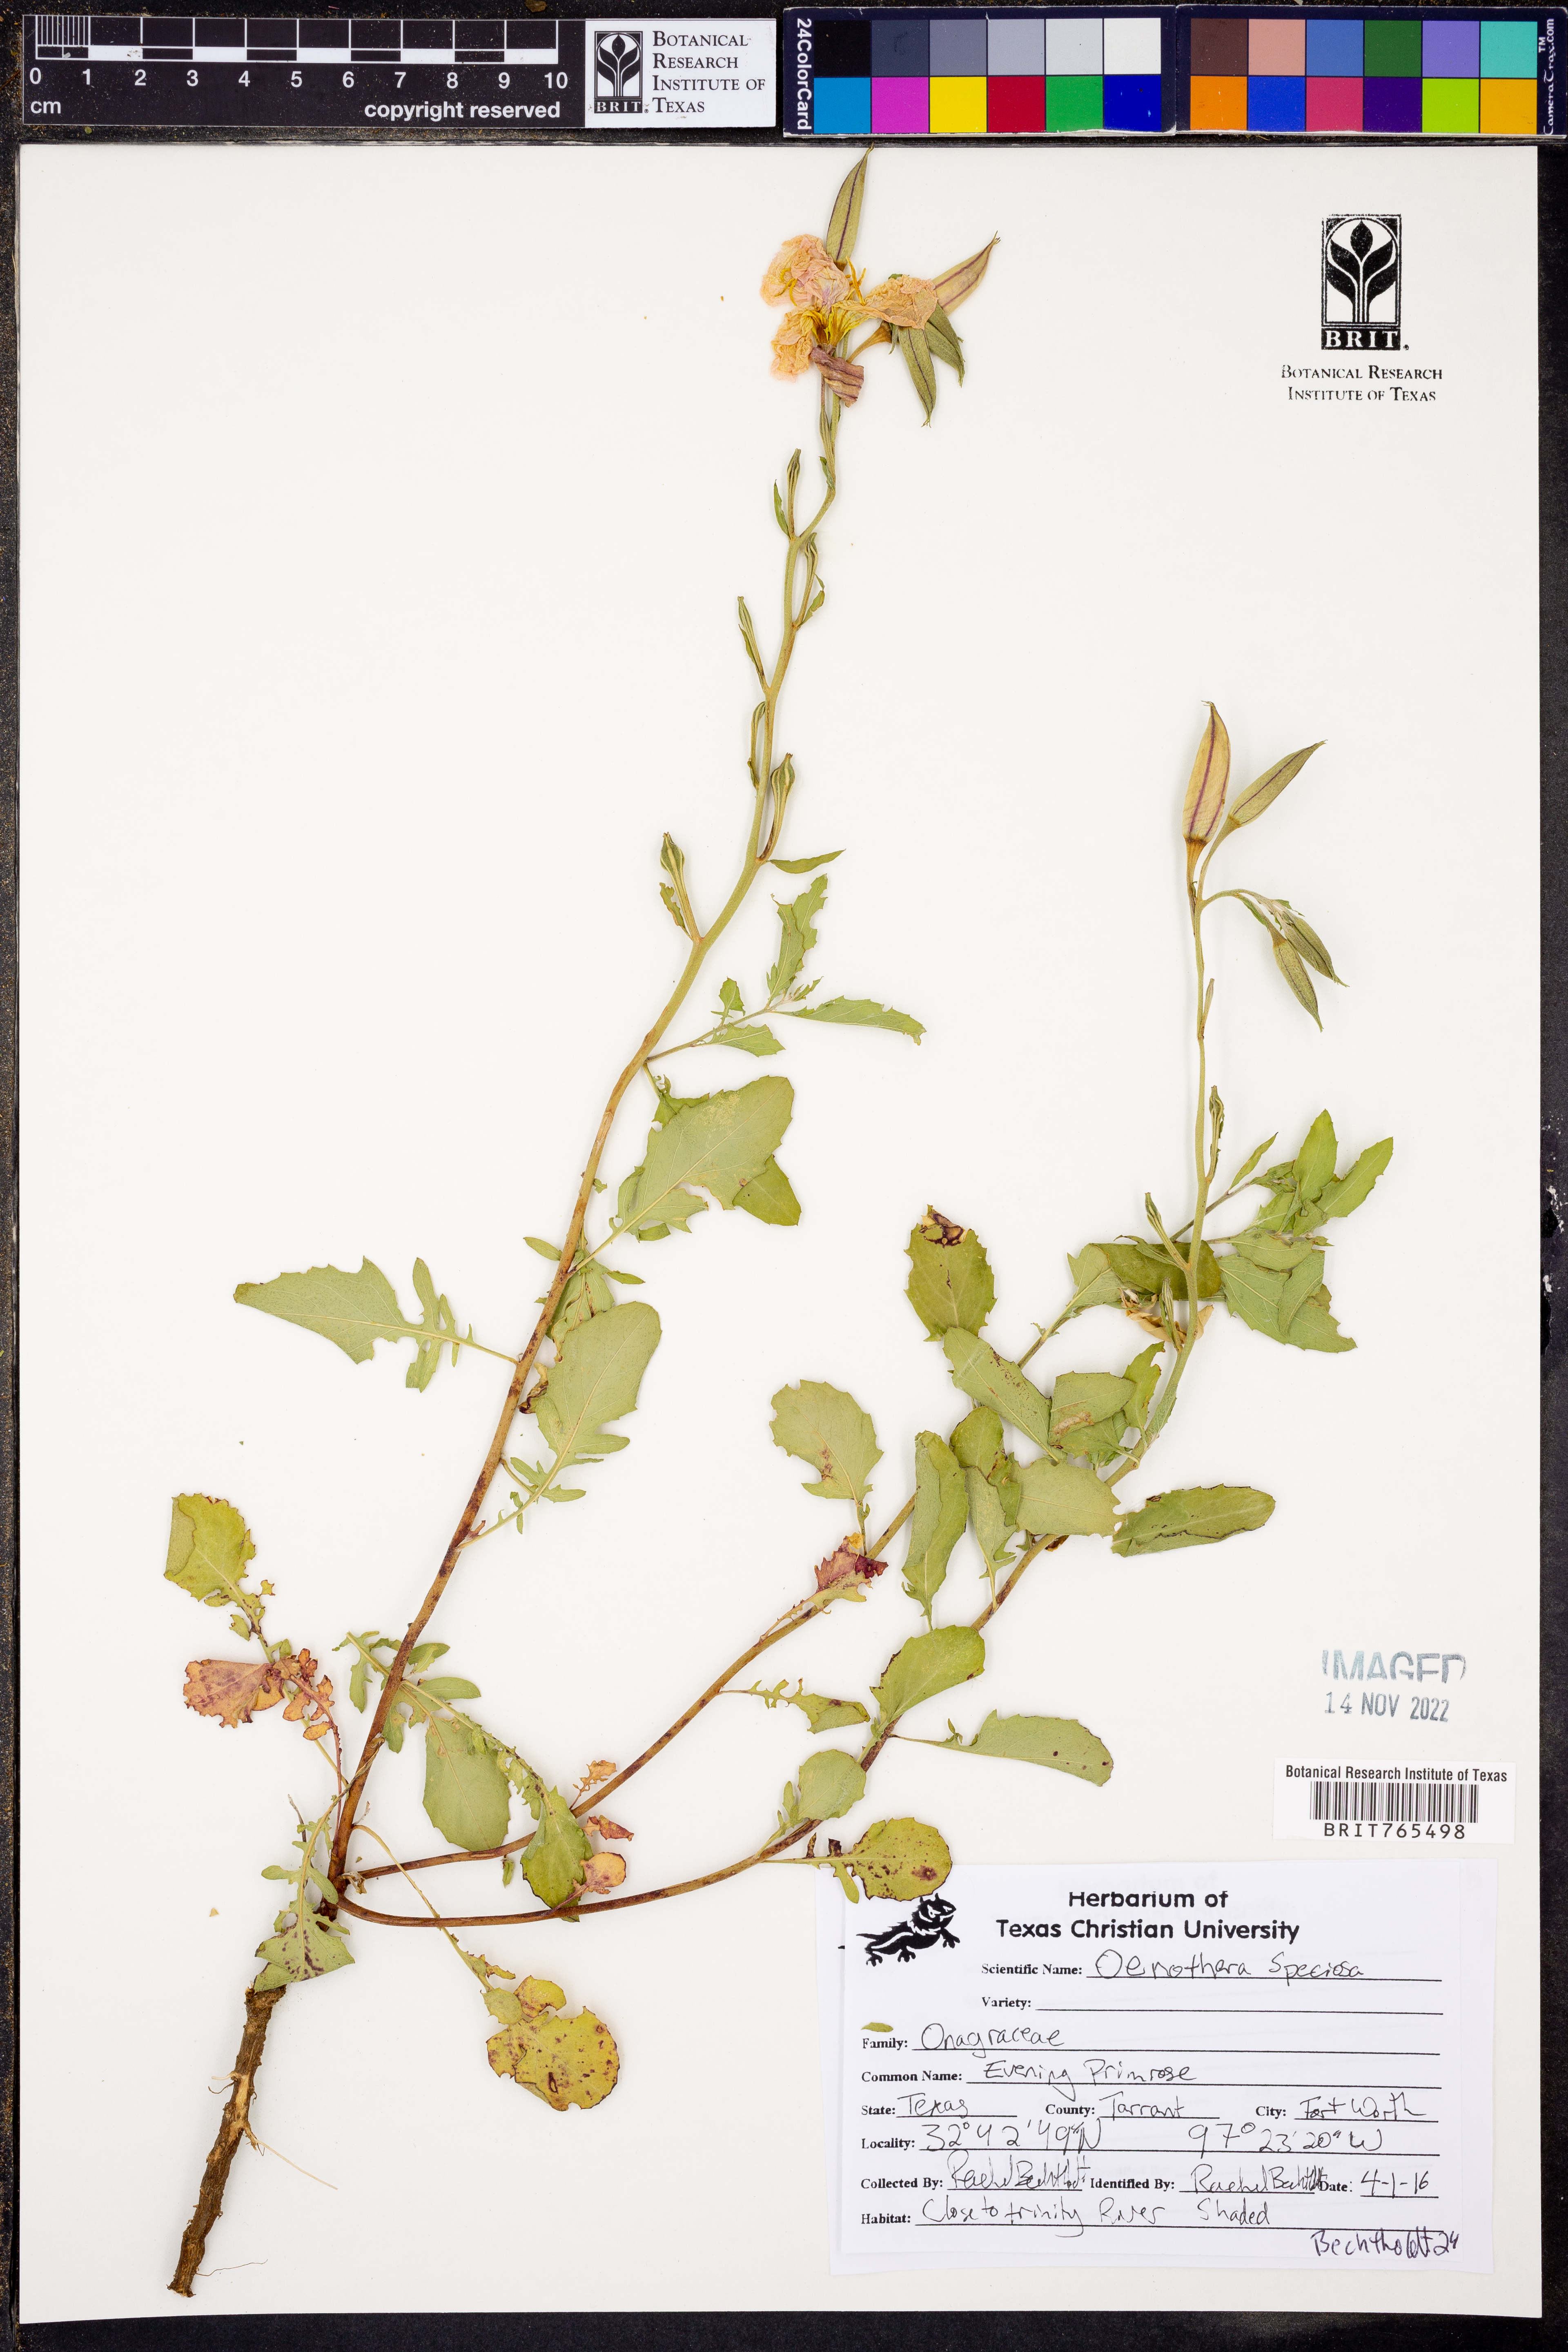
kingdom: Plantae
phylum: Tracheophyta
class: Magnoliopsida
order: Myrtales
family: Onagraceae
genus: Oenothera
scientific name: Oenothera speciosa
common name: White evening-primrose
